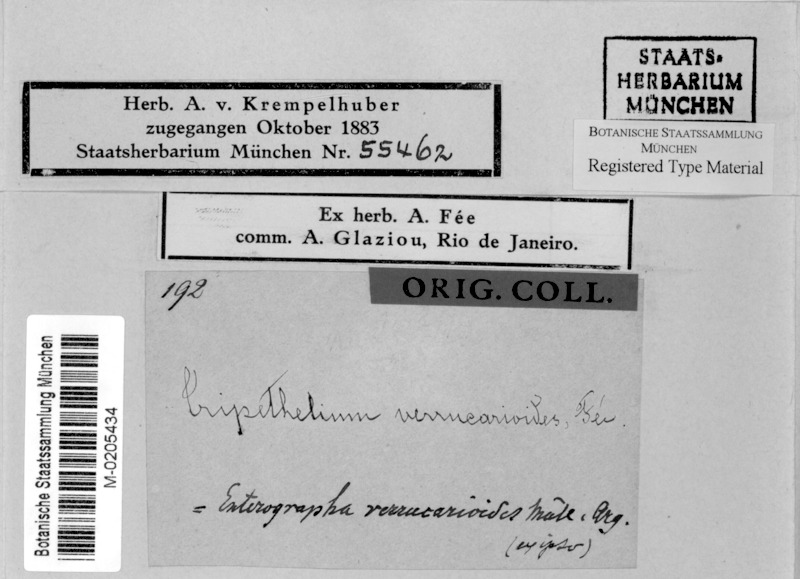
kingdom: Fungi
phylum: Ascomycota
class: Arthoniomycetes
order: Arthoniales
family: Roccellaceae
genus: Chiodecton
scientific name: Chiodecton
